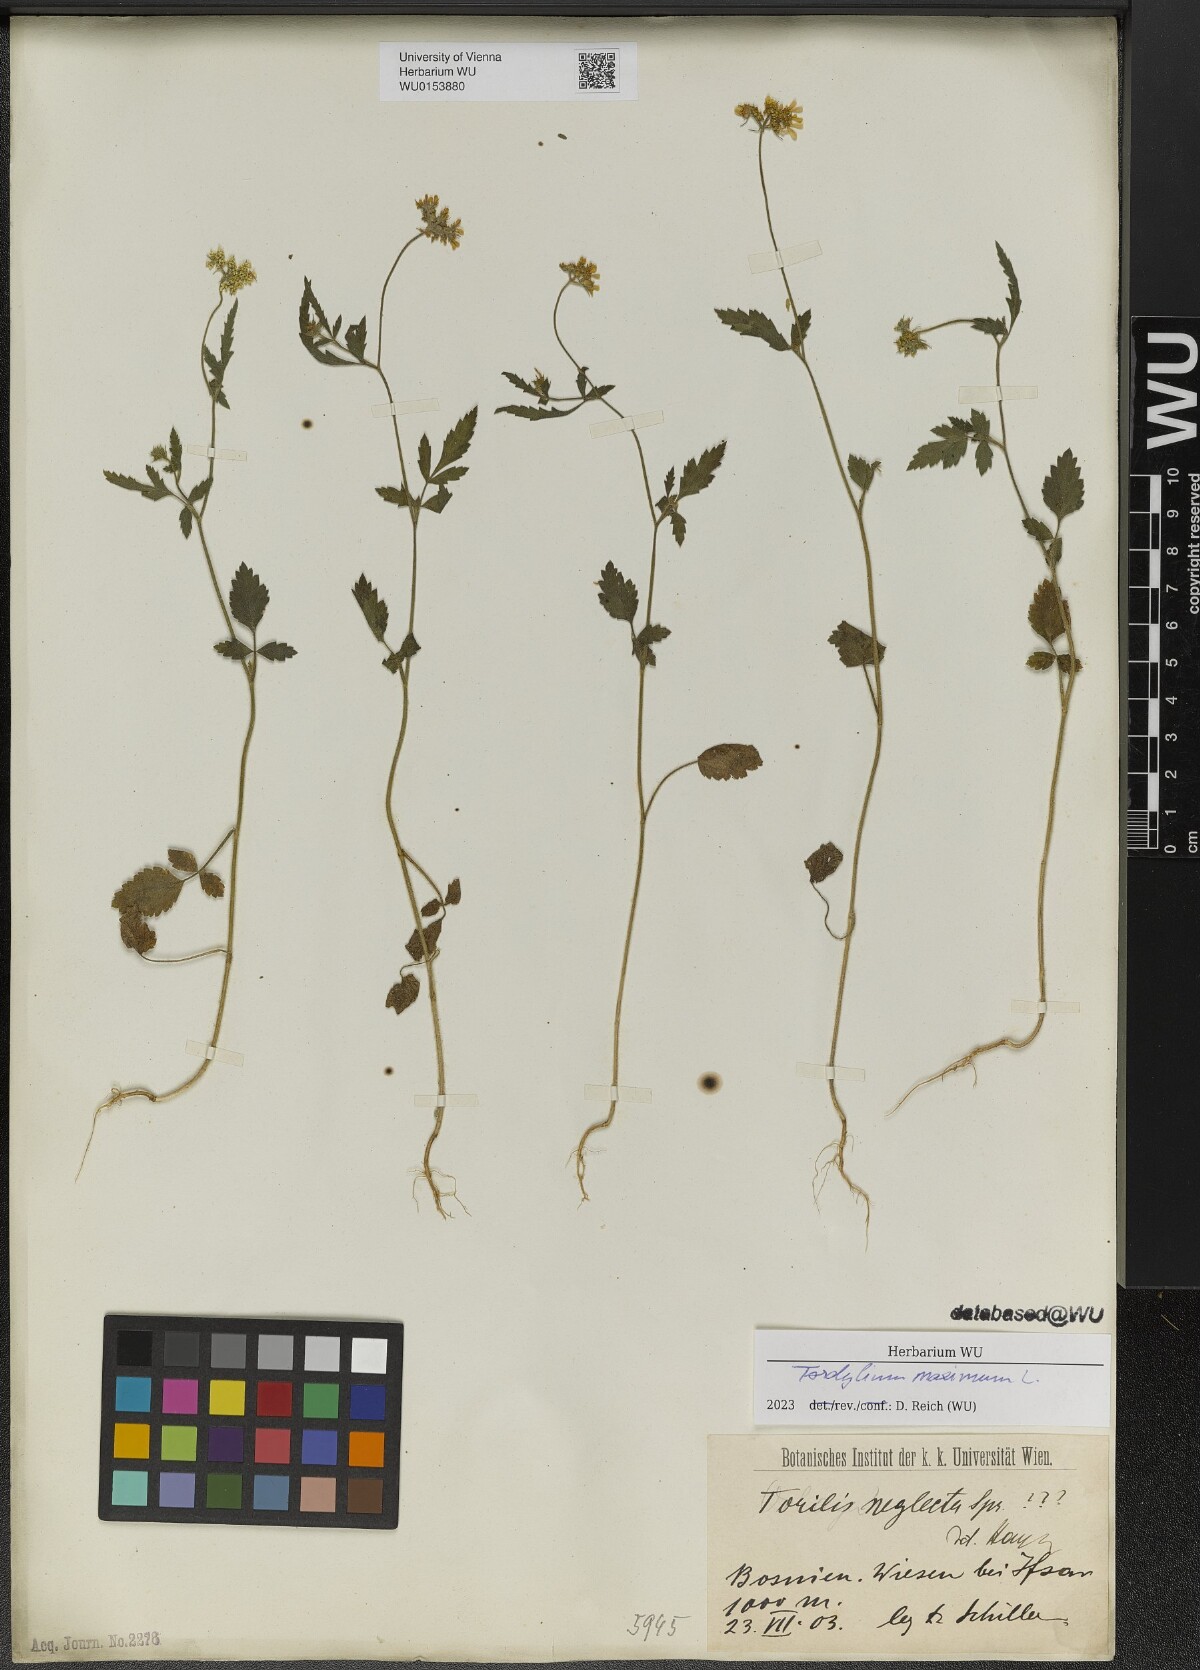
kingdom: Plantae
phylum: Tracheophyta
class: Magnoliopsida
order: Apiales
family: Apiaceae
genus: Tordylium
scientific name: Tordylium maximum
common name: Hartwort
